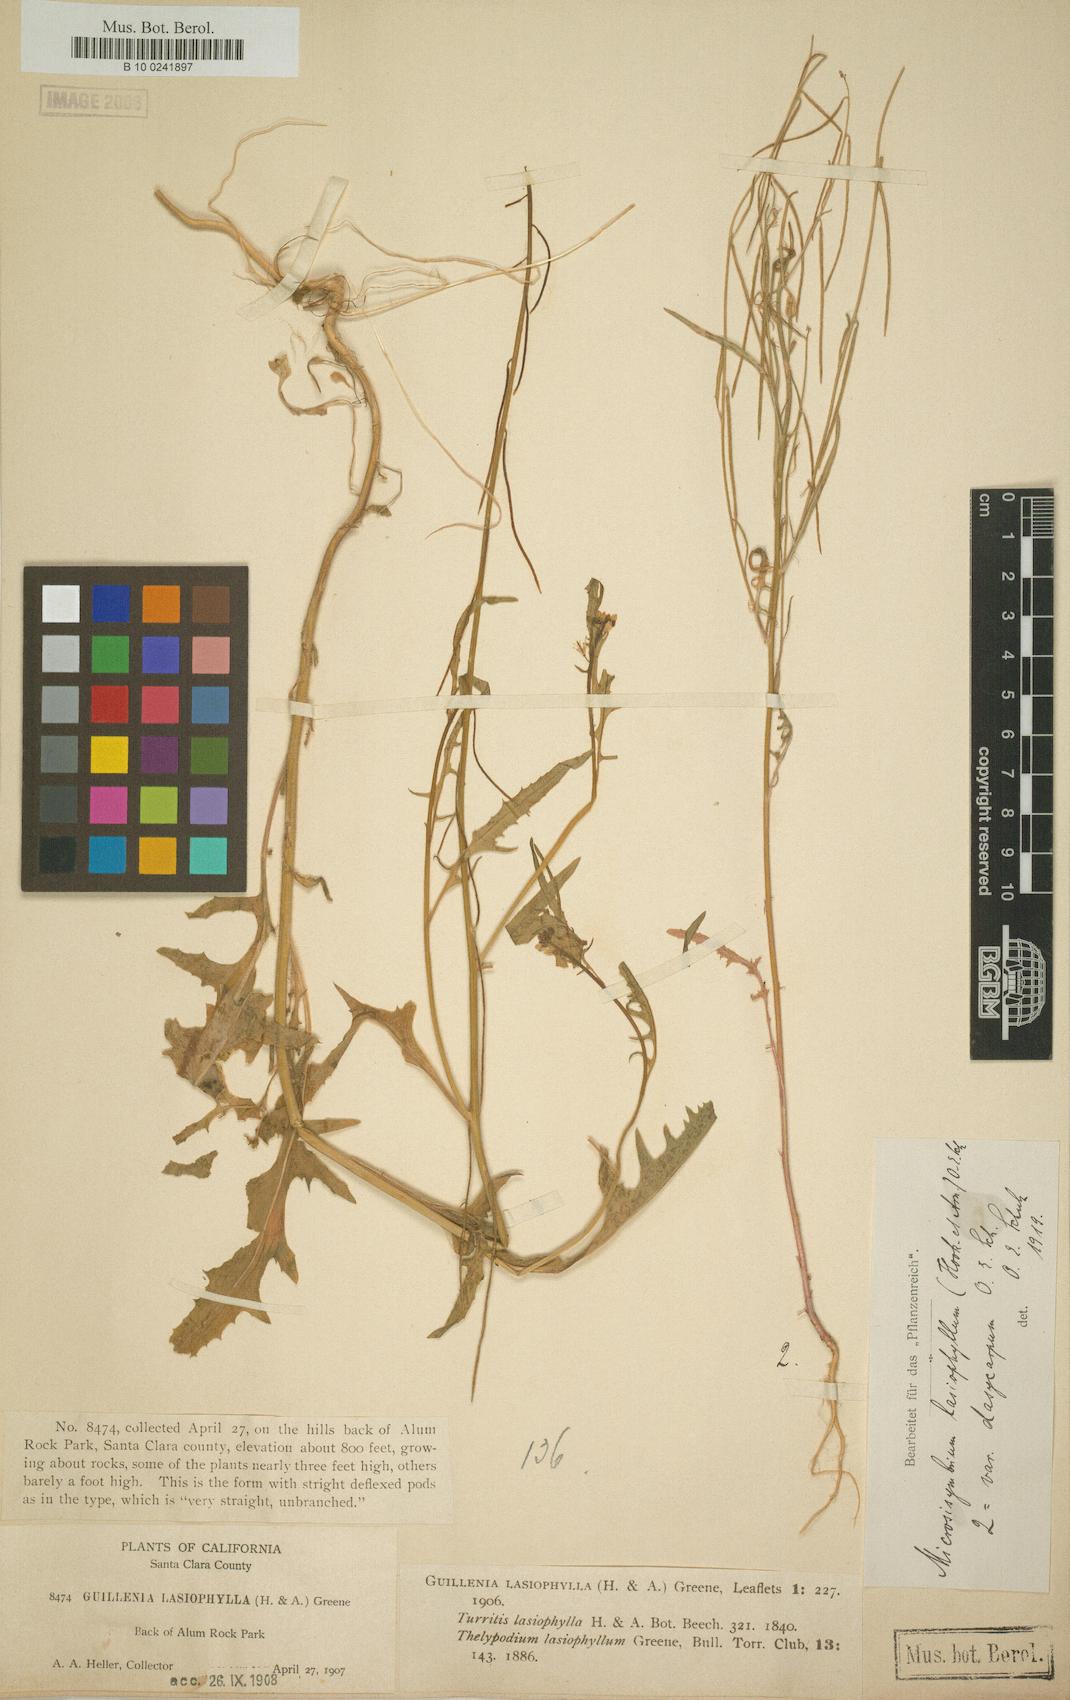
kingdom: Plantae
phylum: Tracheophyta
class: Magnoliopsida
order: Brassicales
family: Brassicaceae
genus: Streptanthus
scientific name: Streptanthus lasiophyllus
